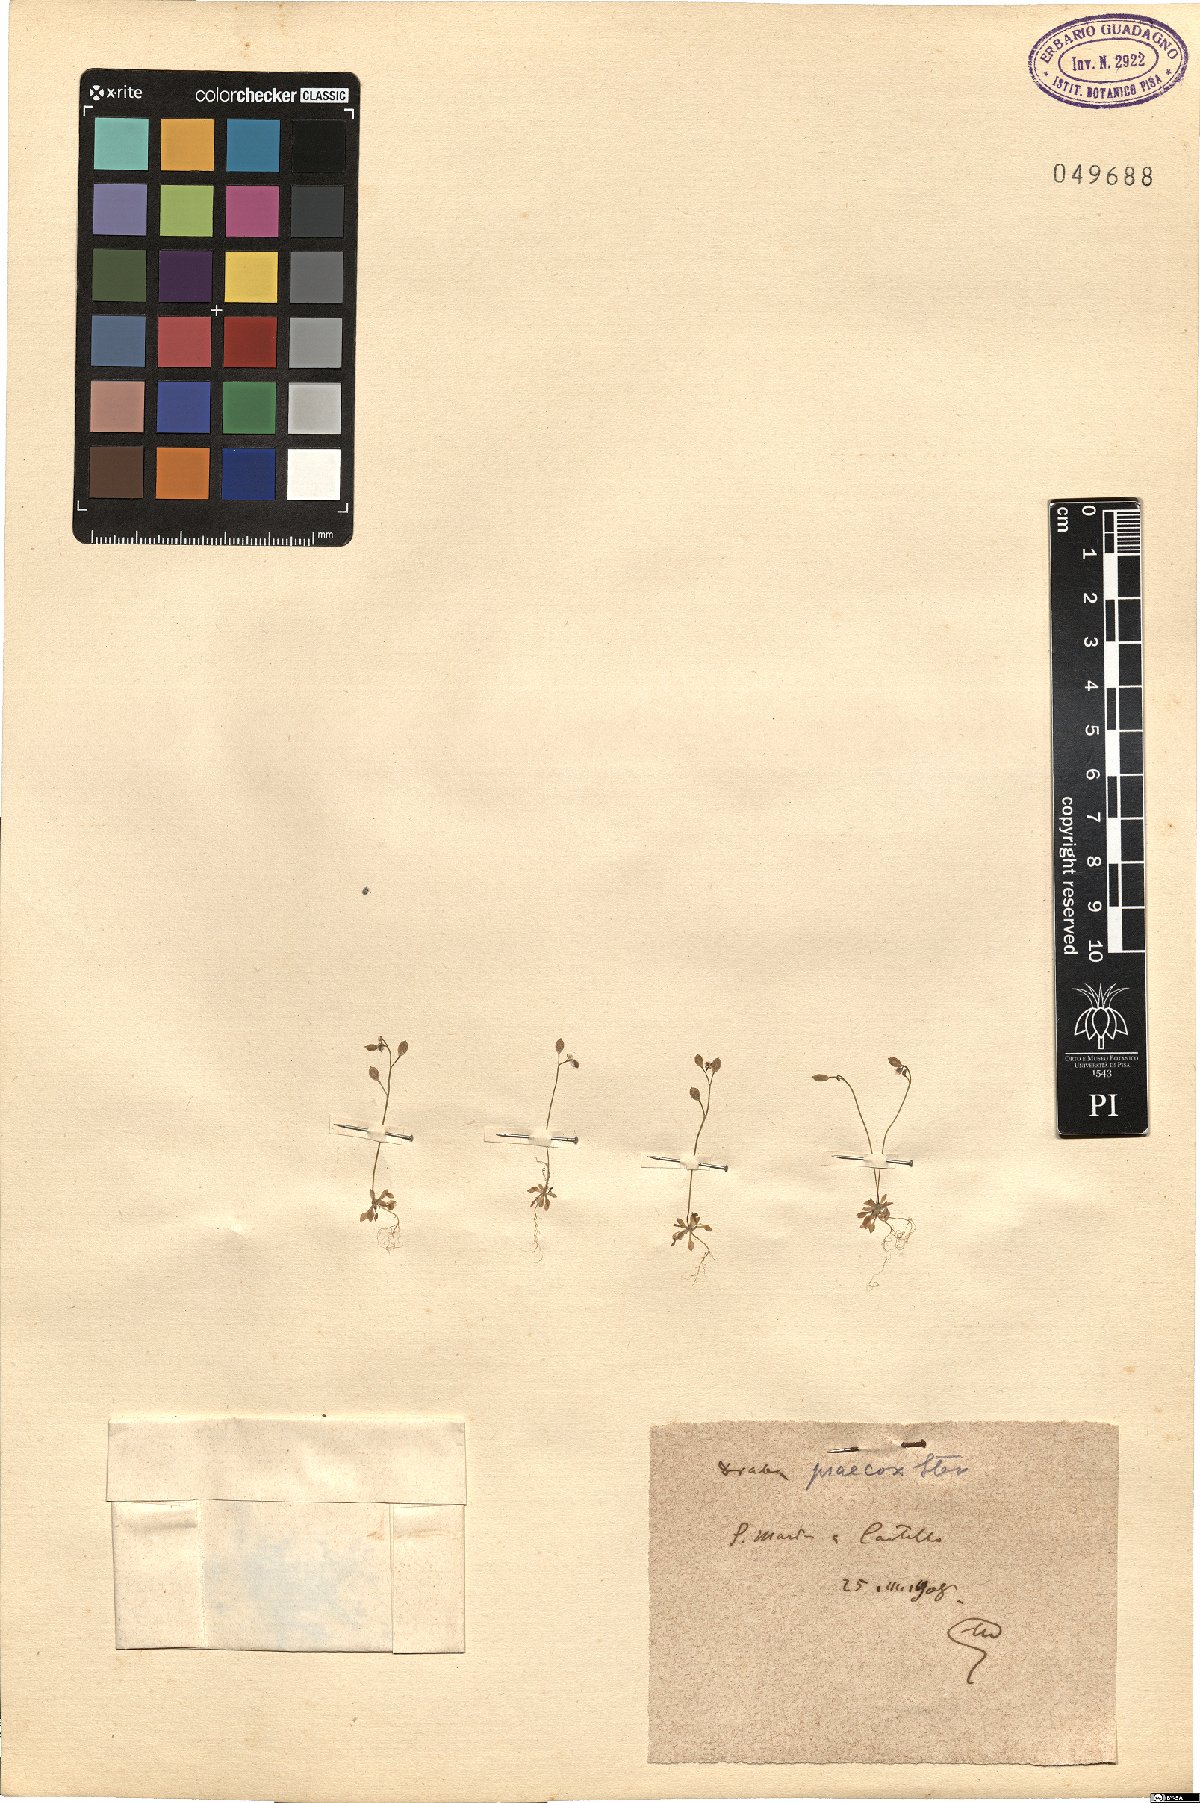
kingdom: Plantae
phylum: Tracheophyta
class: Magnoliopsida
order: Brassicales
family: Brassicaceae
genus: Draba
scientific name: Draba verna
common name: Spring draba
